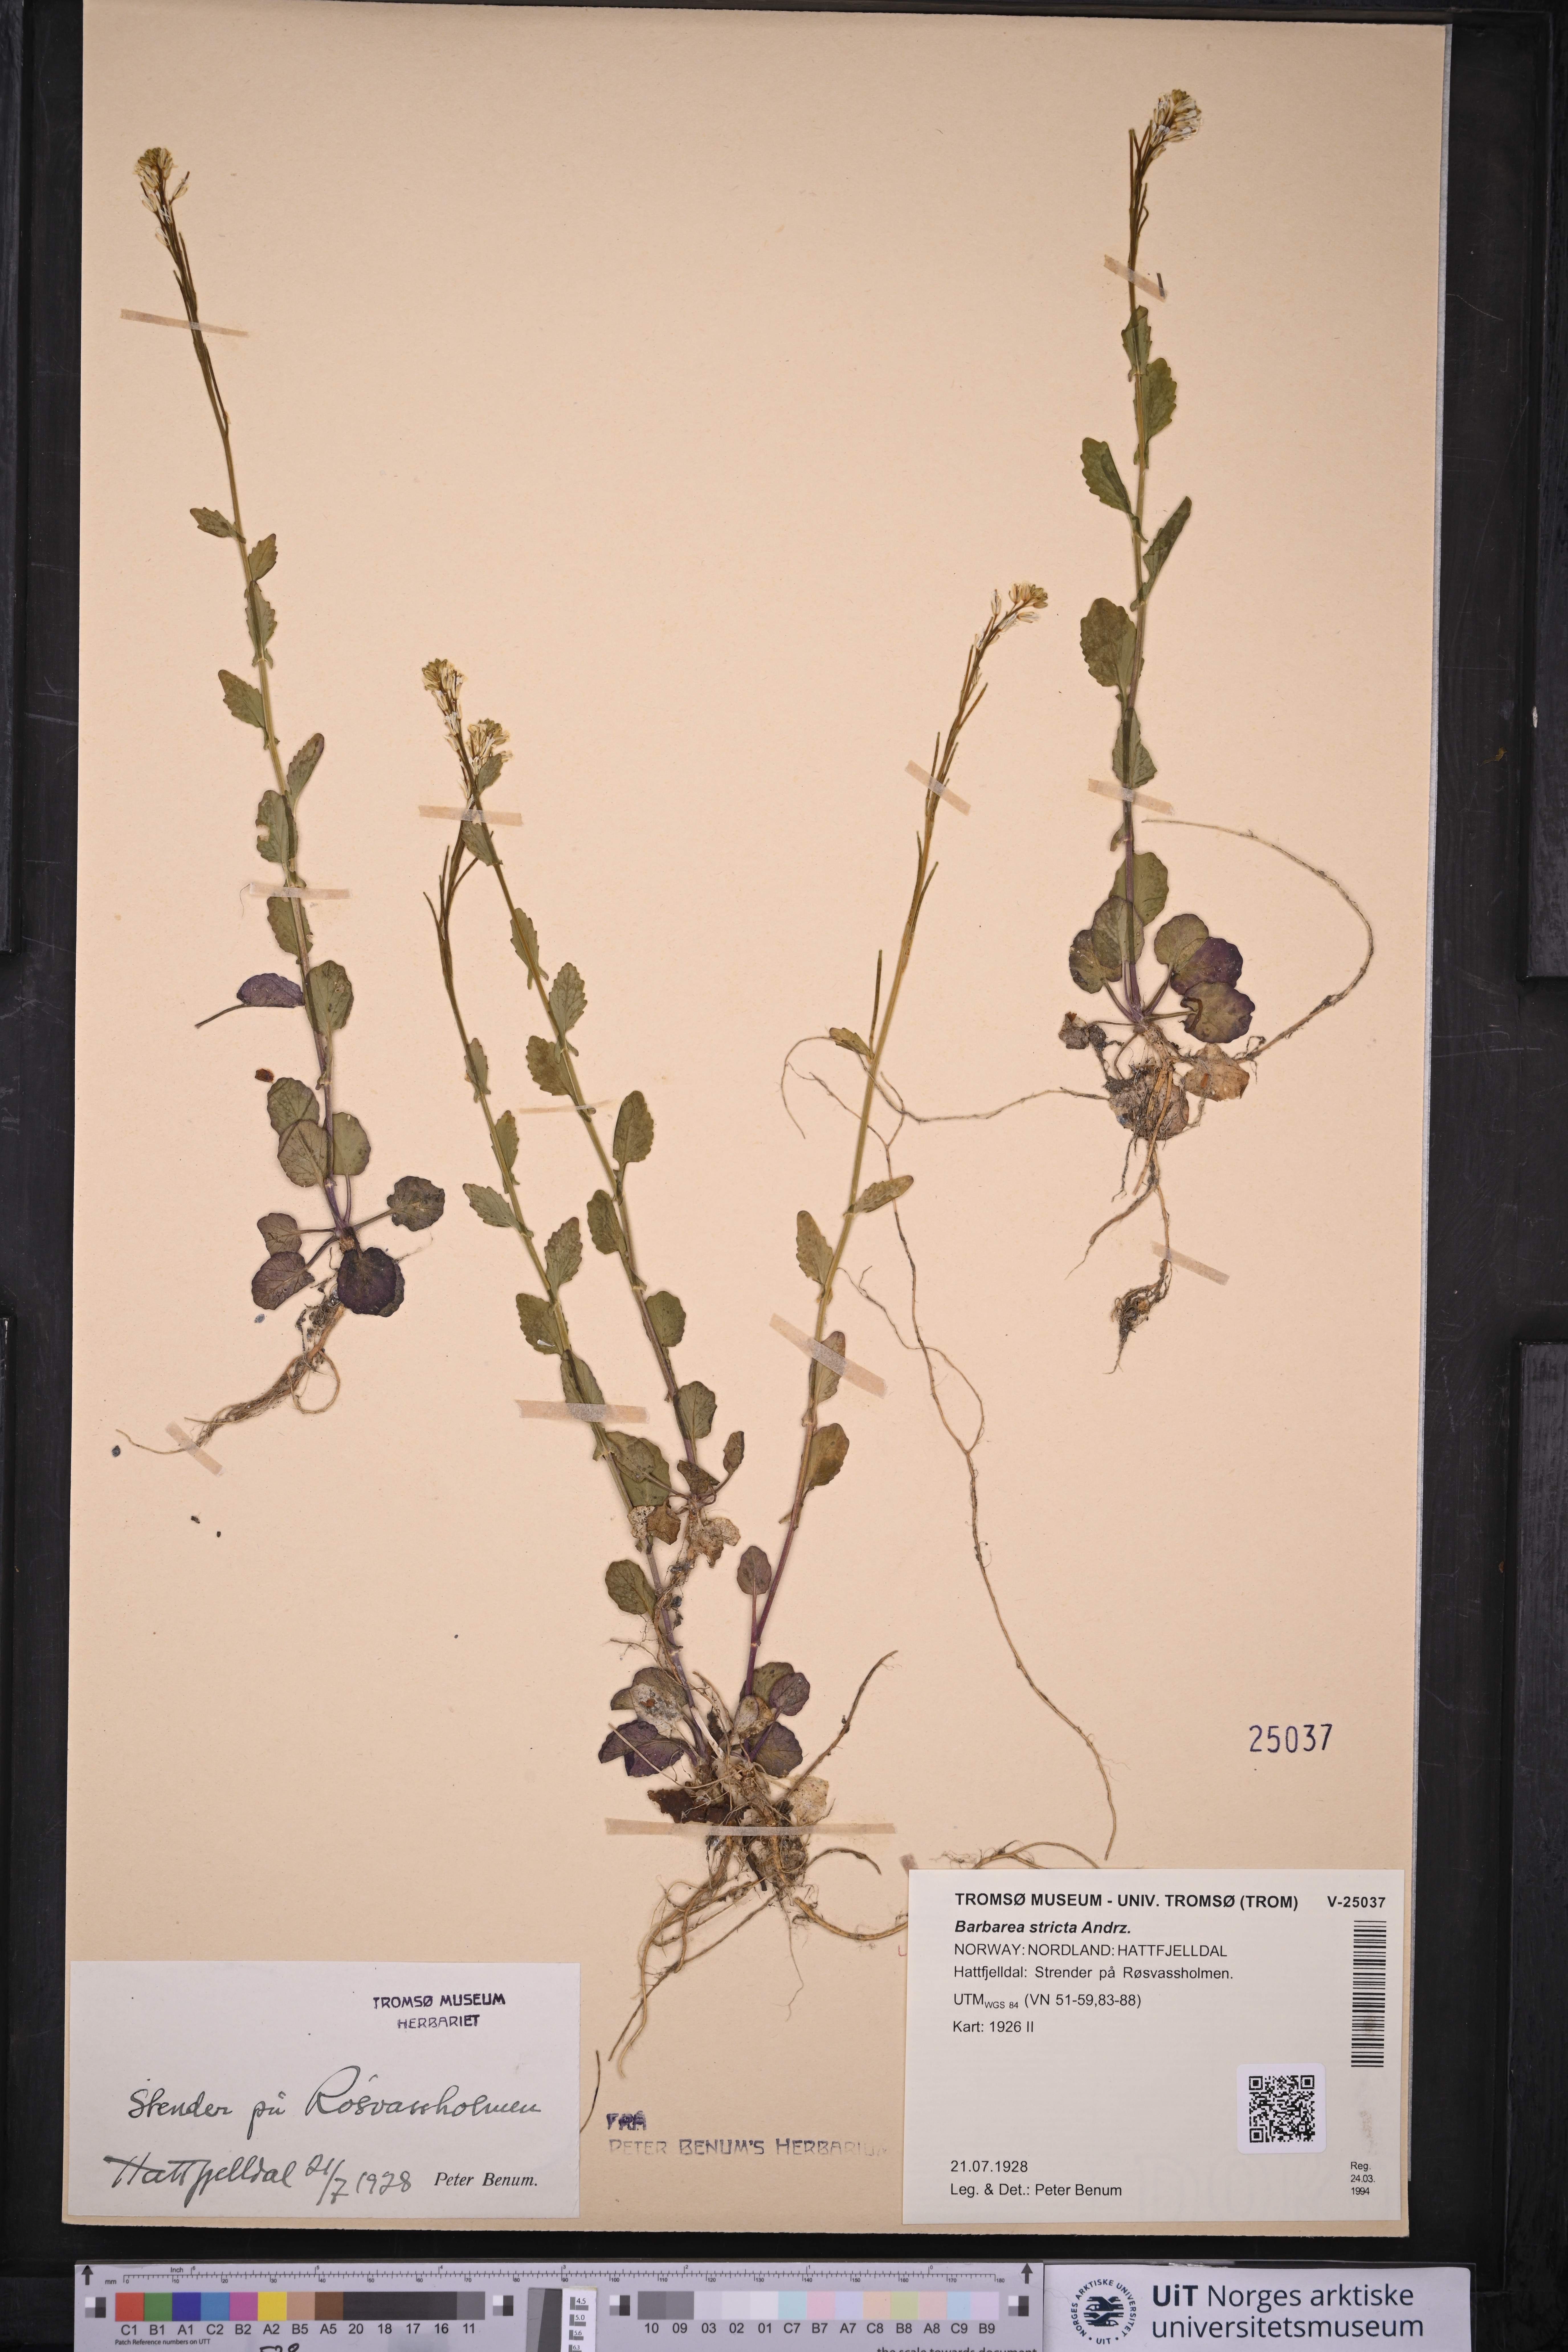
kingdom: Plantae
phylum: Tracheophyta
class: Magnoliopsida
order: Brassicales
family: Brassicaceae
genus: Barbarea
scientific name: Barbarea stricta
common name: Small-flowered winter-cress
